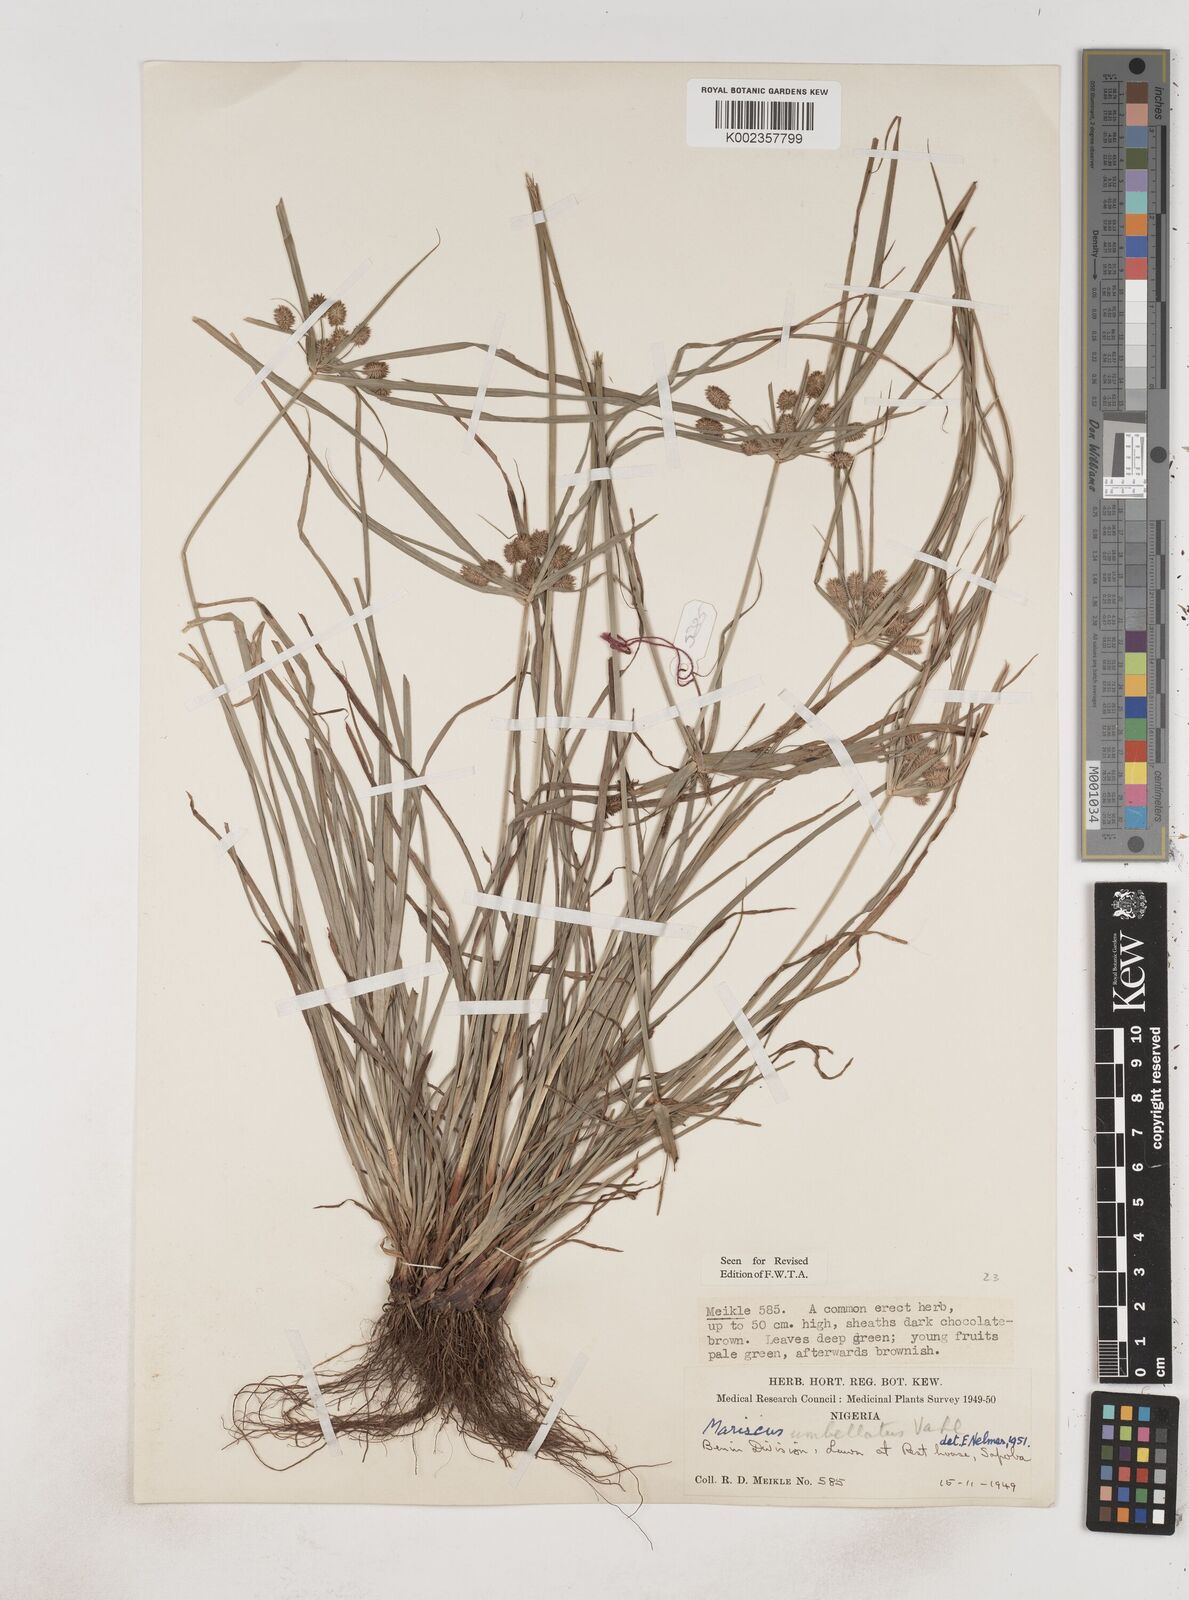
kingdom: Plantae
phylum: Tracheophyta
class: Liliopsida
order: Poales
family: Cyperaceae
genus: Cyperus
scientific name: Cyperus sublimis
